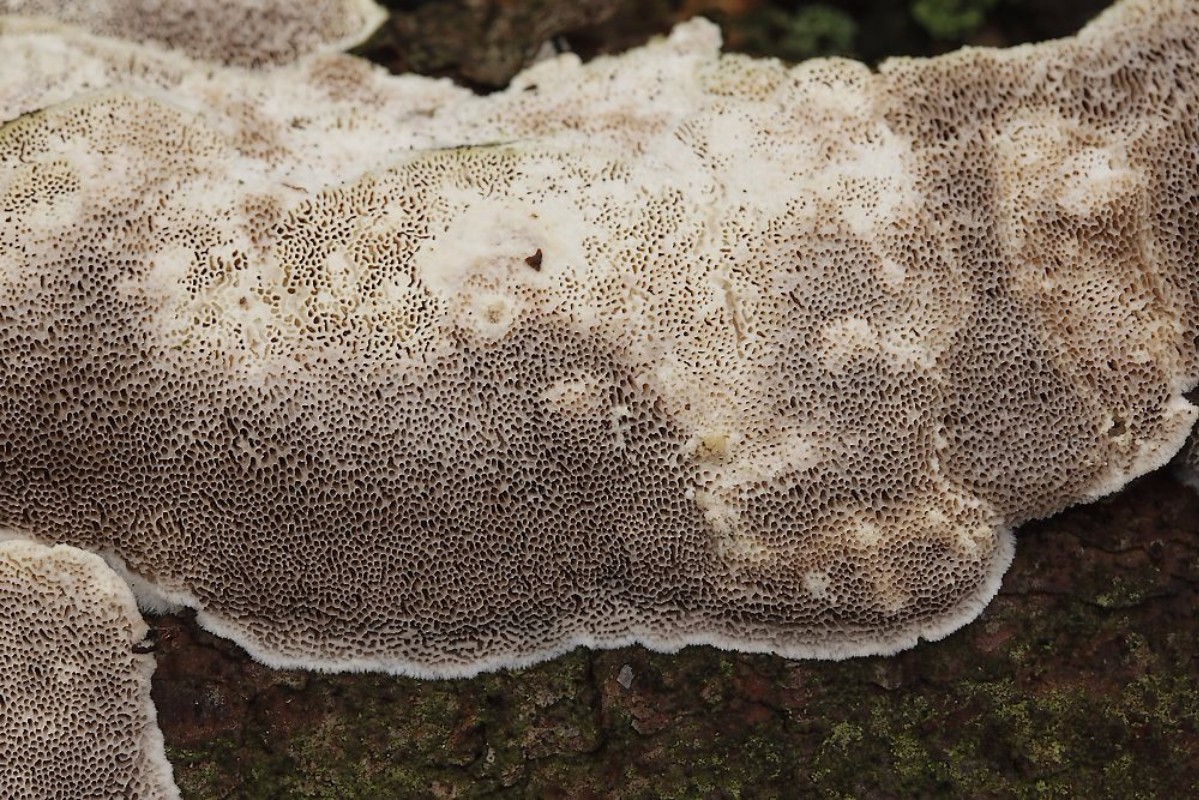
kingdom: Fungi
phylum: Basidiomycota
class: Agaricomycetes
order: Polyporales
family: Gelatoporiaceae
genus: Cinereomyces
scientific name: Cinereomyces lindbladii
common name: almindelig gråporesvamp
